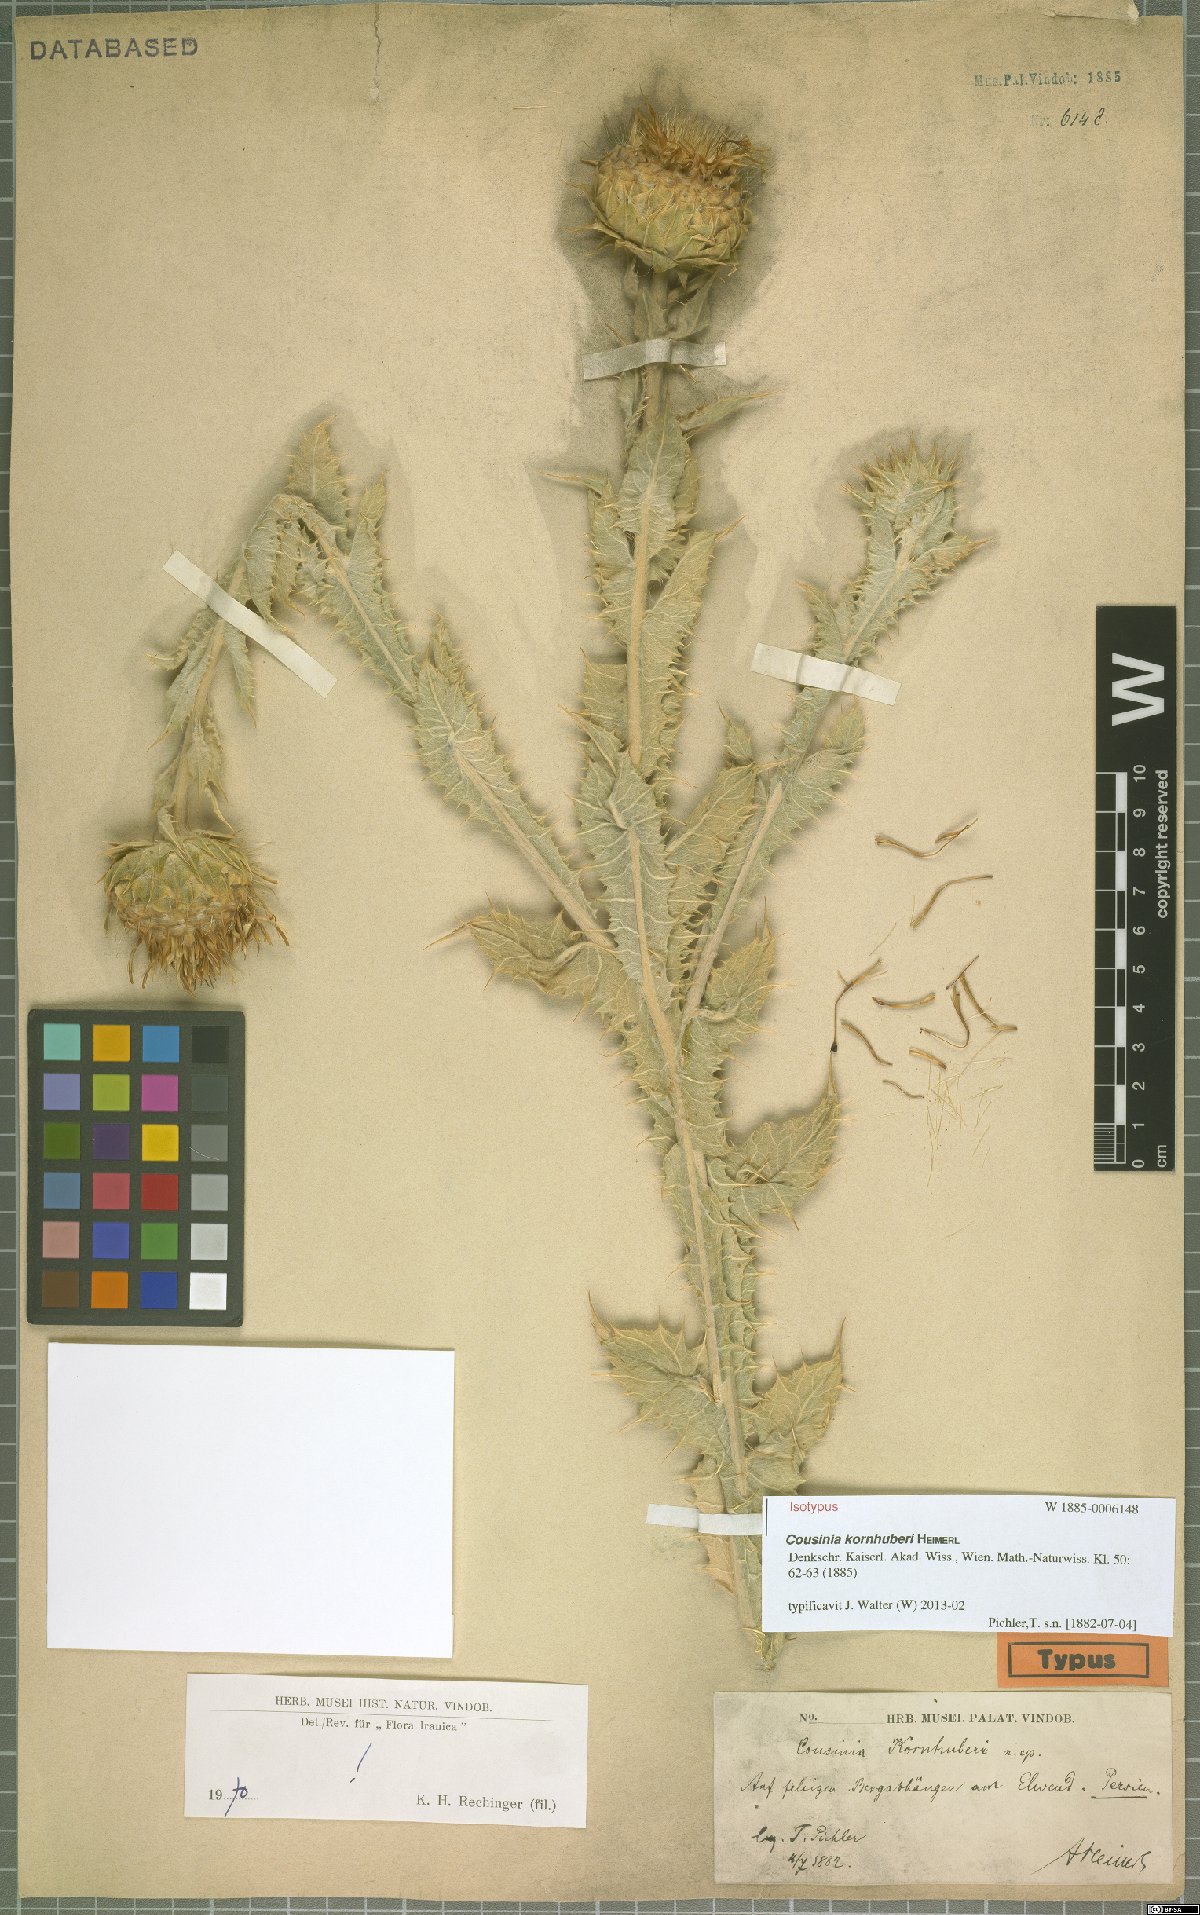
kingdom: Plantae
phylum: Tracheophyta
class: Magnoliopsida
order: Asterales
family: Asteraceae
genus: Cousinia
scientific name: Cousinia kornhuberi
